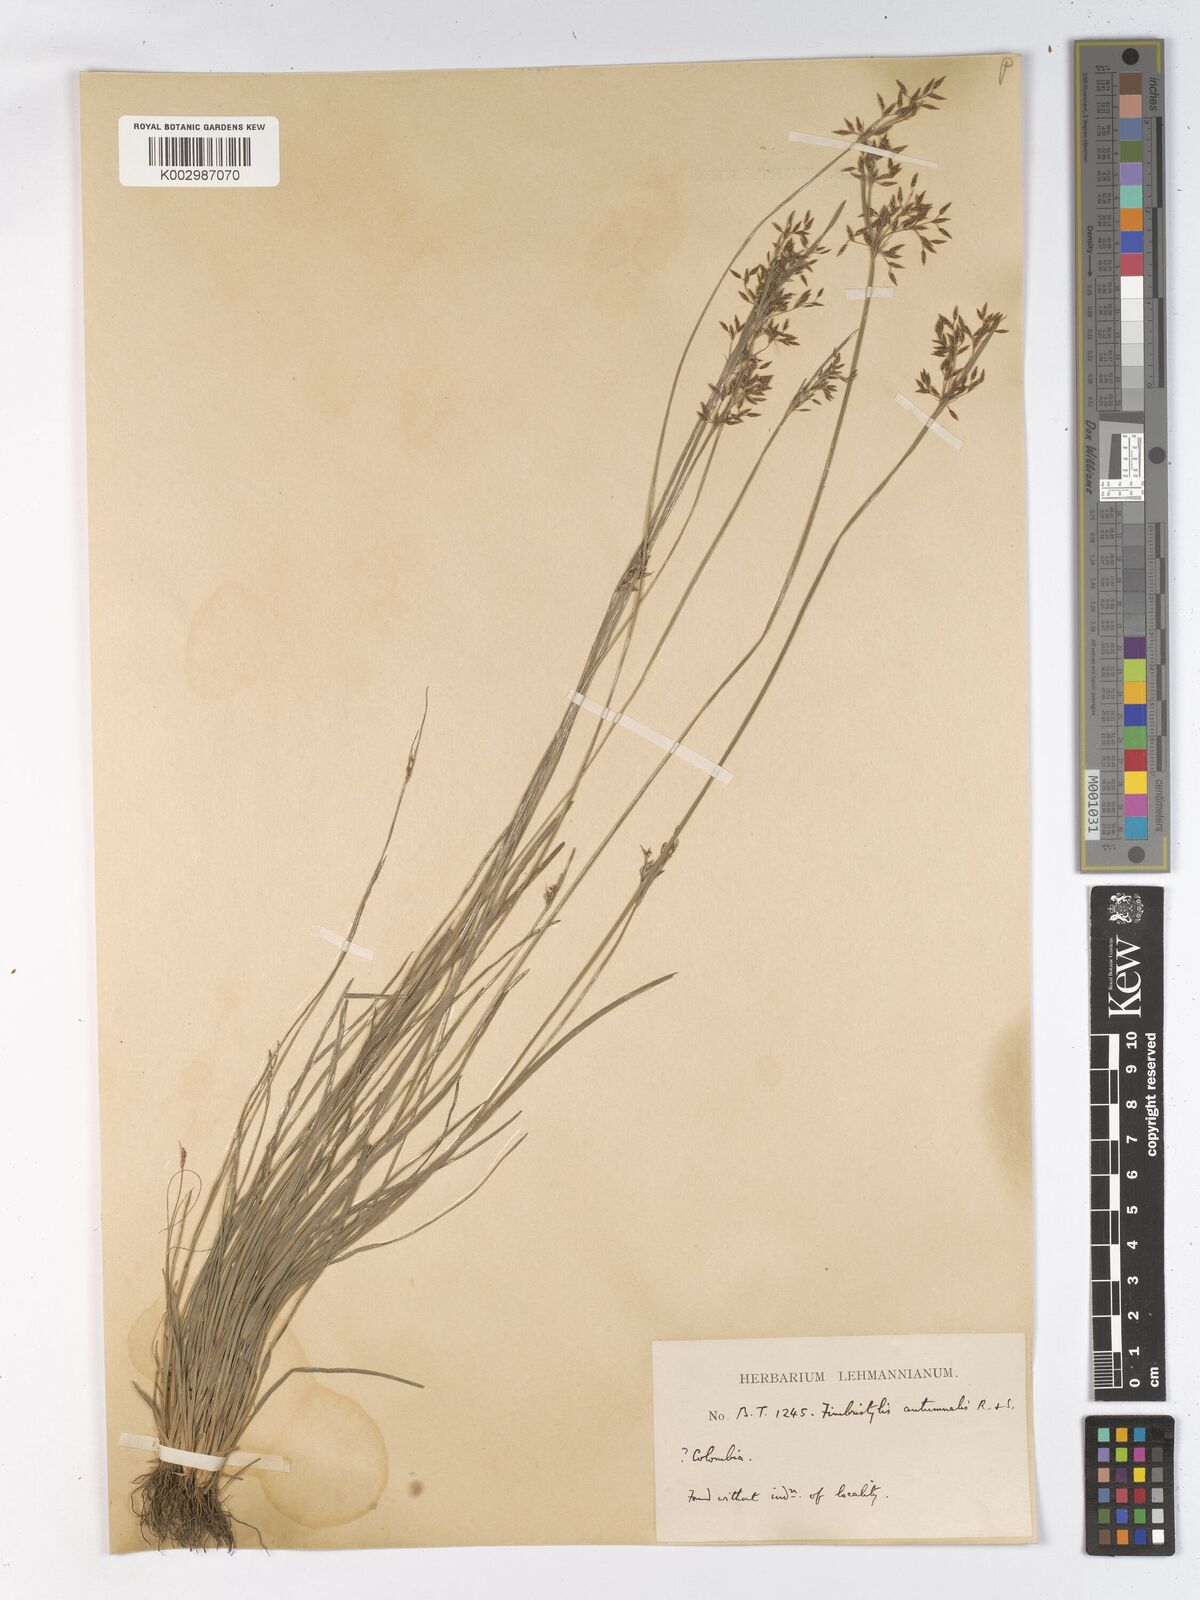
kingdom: Plantae
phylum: Tracheophyta
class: Liliopsida
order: Poales
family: Cyperaceae
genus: Fimbristylis
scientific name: Fimbristylis autumnalis
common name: Slender fimbristylis
